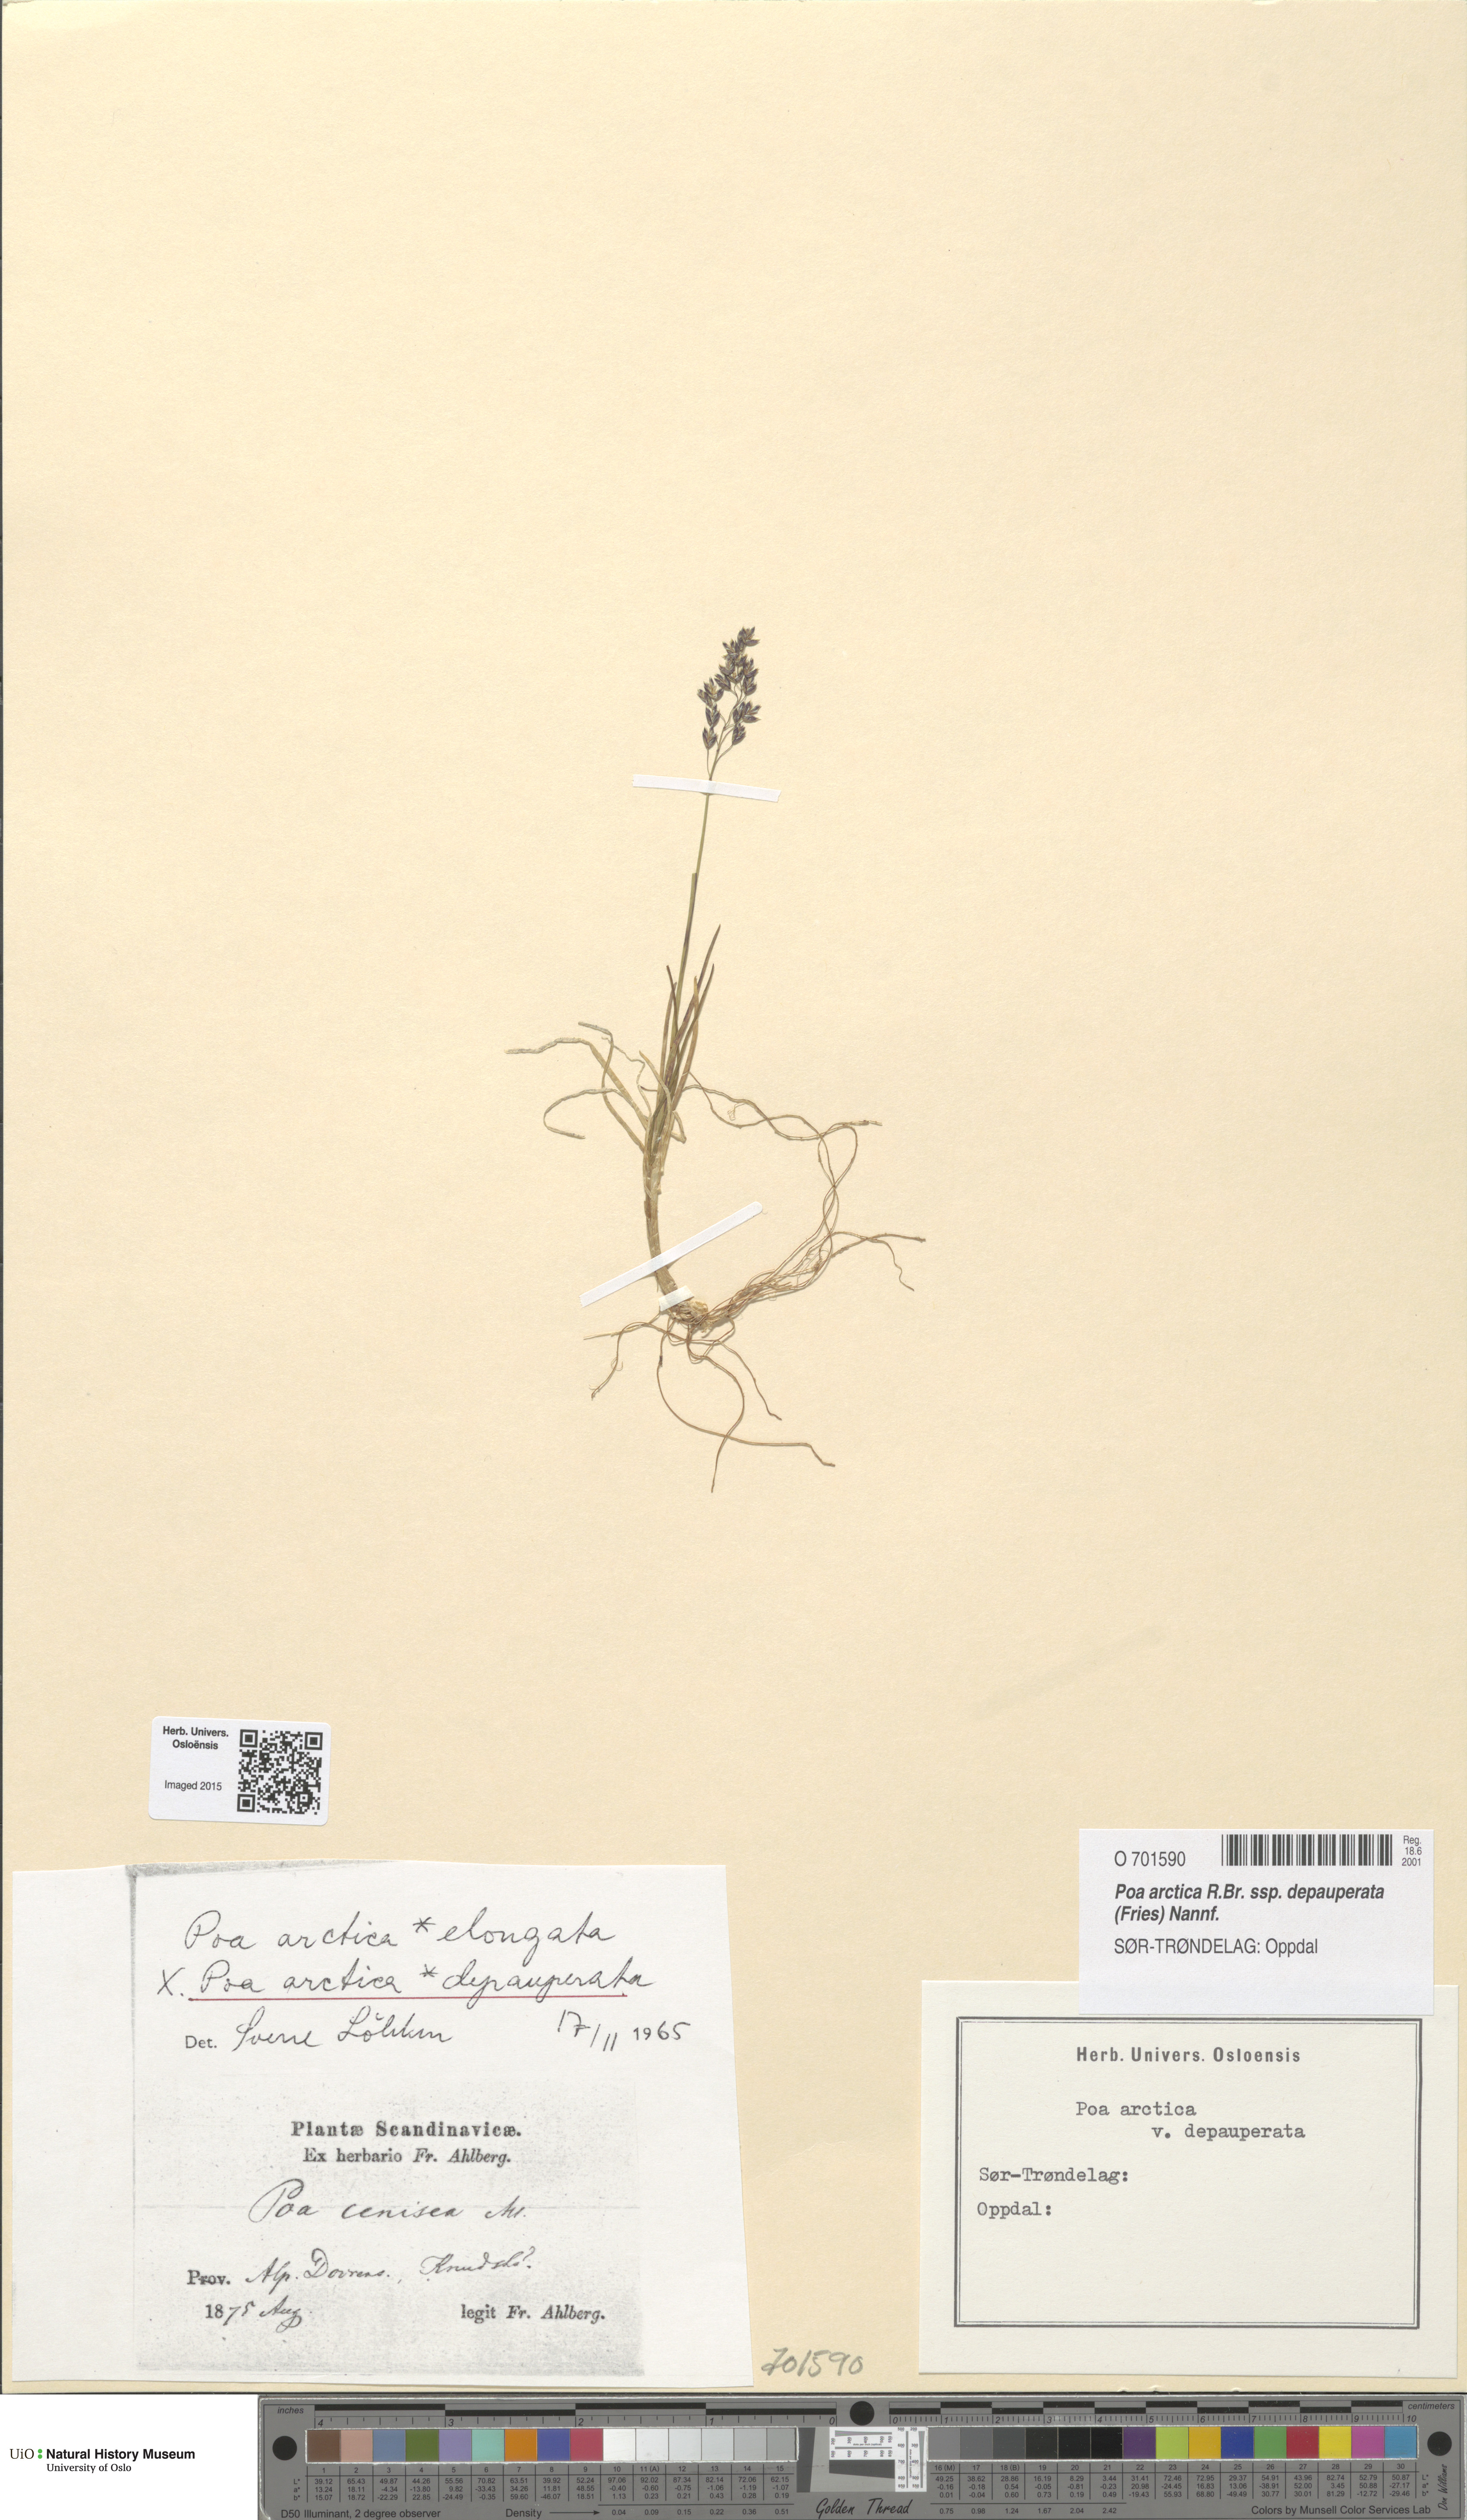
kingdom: Plantae
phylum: Tracheophyta
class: Liliopsida
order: Poales
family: Poaceae
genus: Poa
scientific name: Poa arctica
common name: Arctic bluegrass
